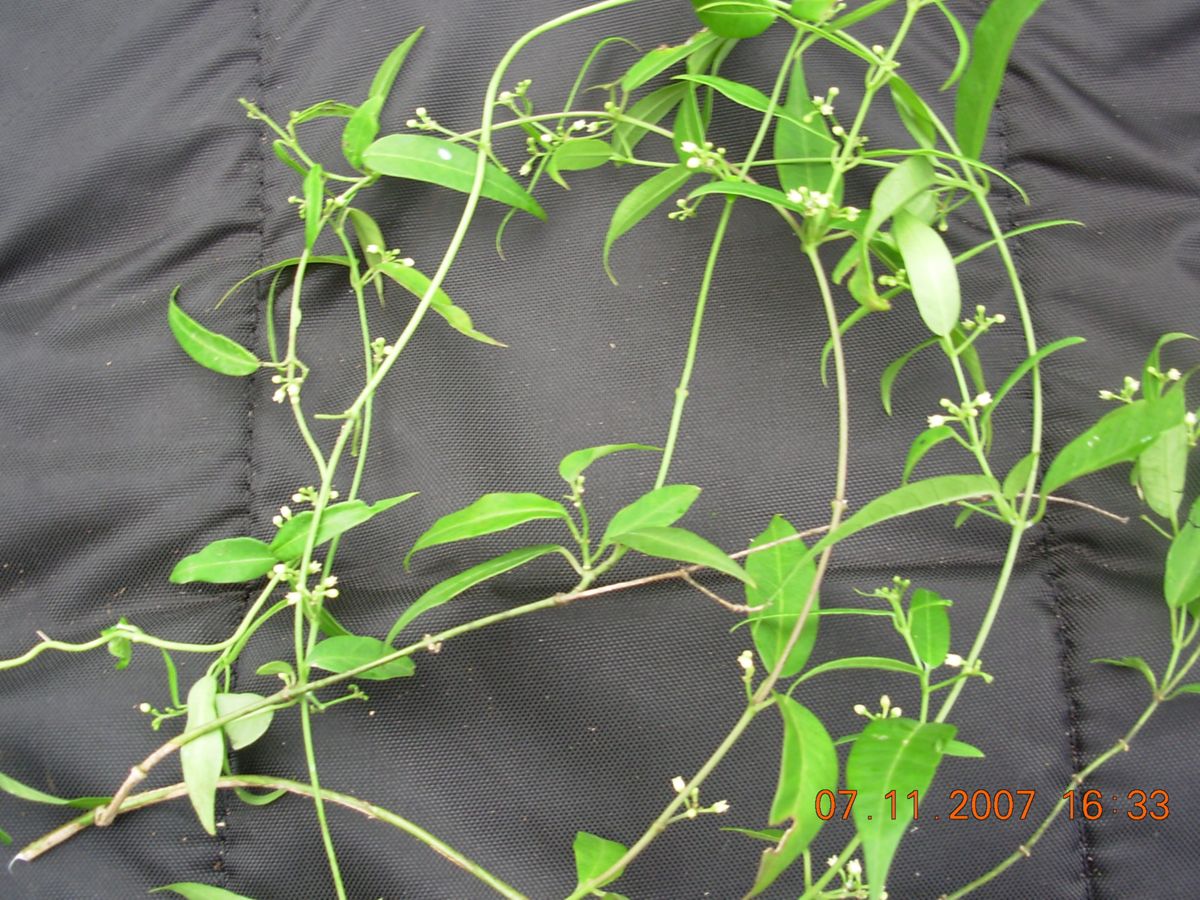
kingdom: Plantae
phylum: Tracheophyta
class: Magnoliopsida
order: Gentianales
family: Apocynaceae
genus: Metastelma
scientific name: Metastelma thysanotum
